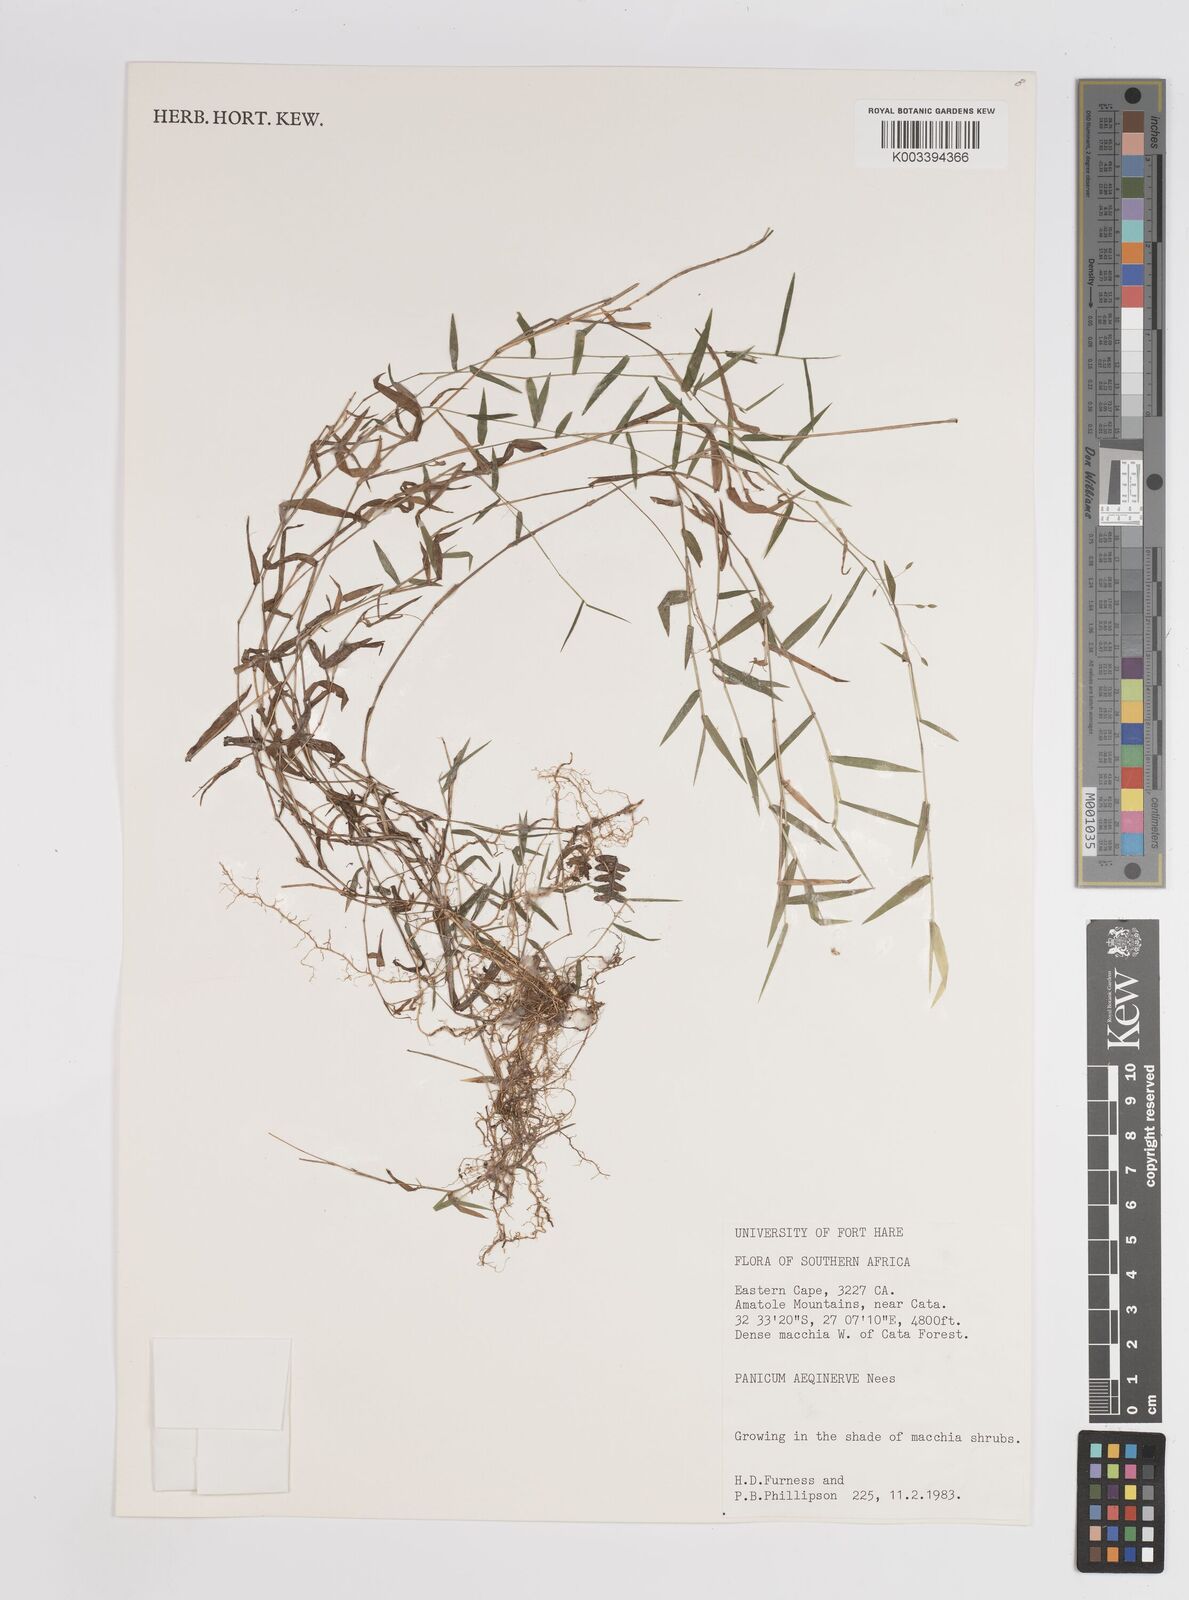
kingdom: Plantae
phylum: Tracheophyta
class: Liliopsida
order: Poales
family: Poaceae
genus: Panicum
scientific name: Panicum aequinerve
